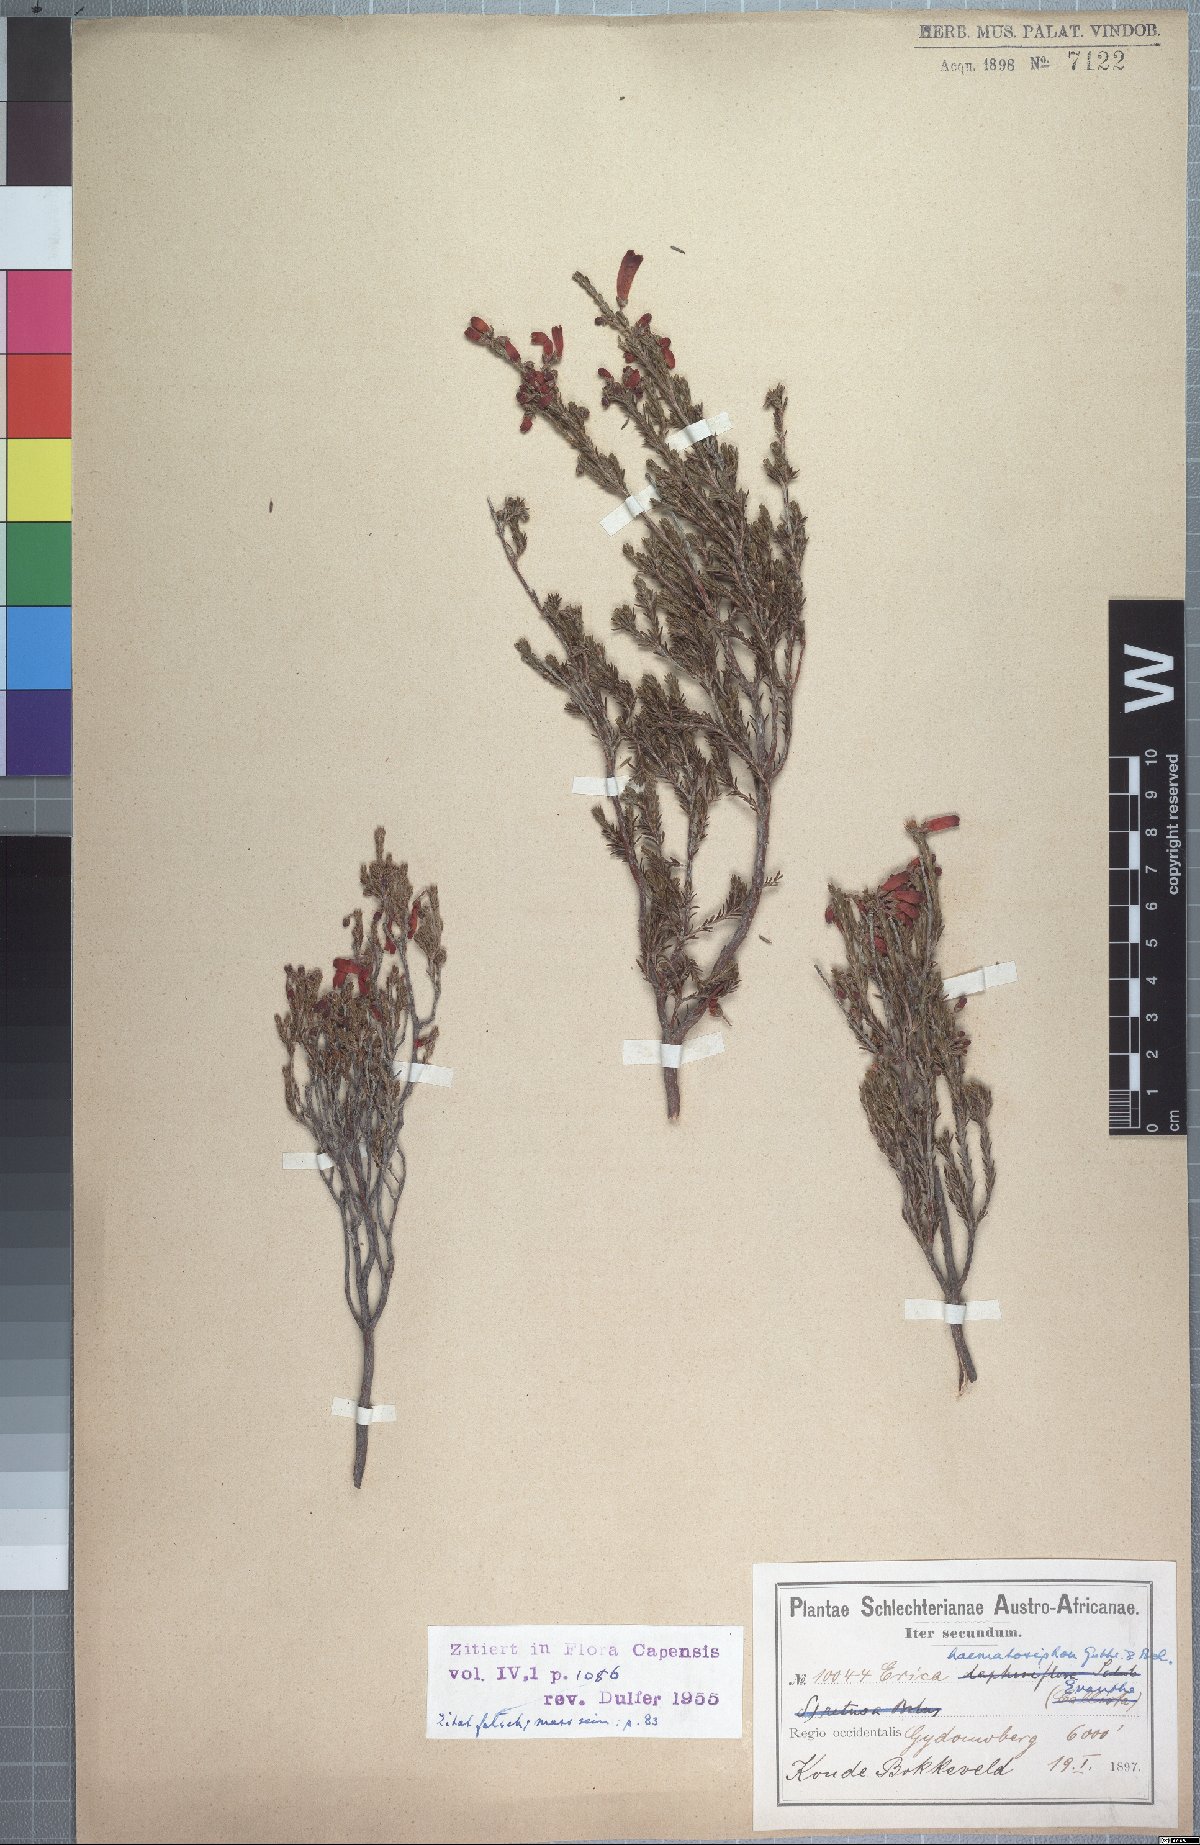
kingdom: Plantae
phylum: Tracheophyta
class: Magnoliopsida
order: Ericales
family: Ericaceae
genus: Erica
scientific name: Erica haematosiphon
